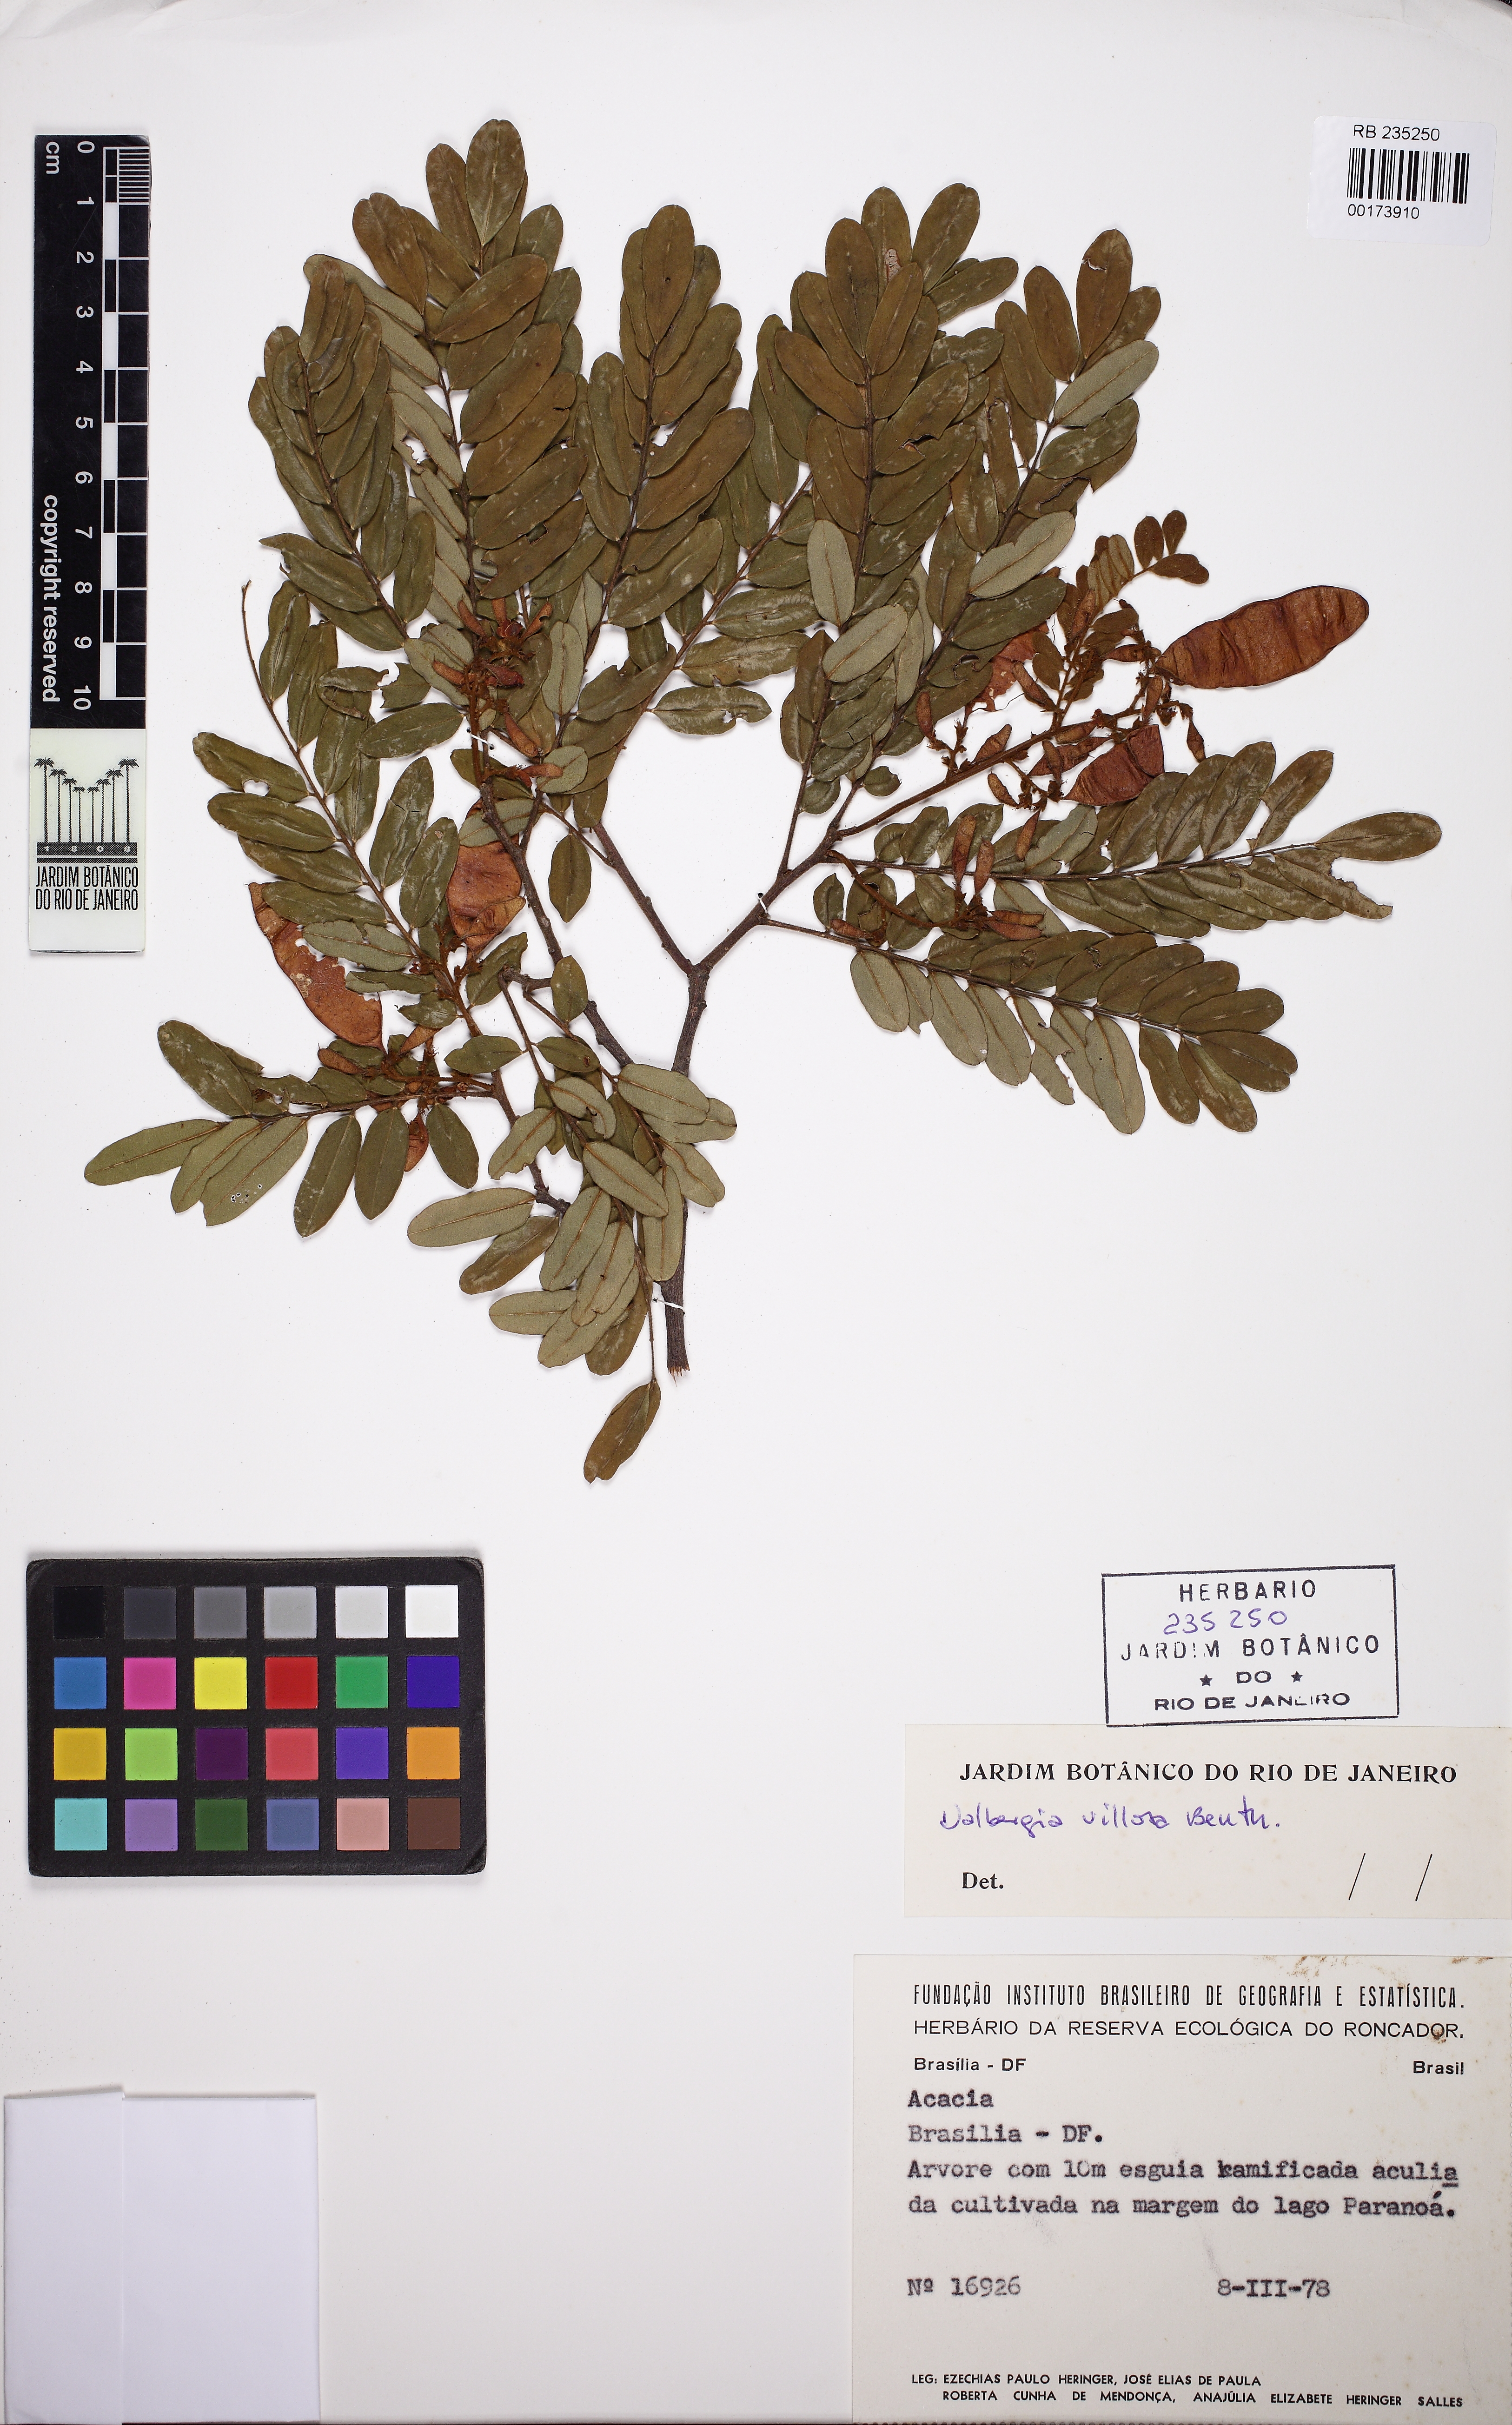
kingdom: Plantae
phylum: Tracheophyta
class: Magnoliopsida
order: Fabales
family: Fabaceae
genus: Dalbergia
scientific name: Dalbergia villosa
